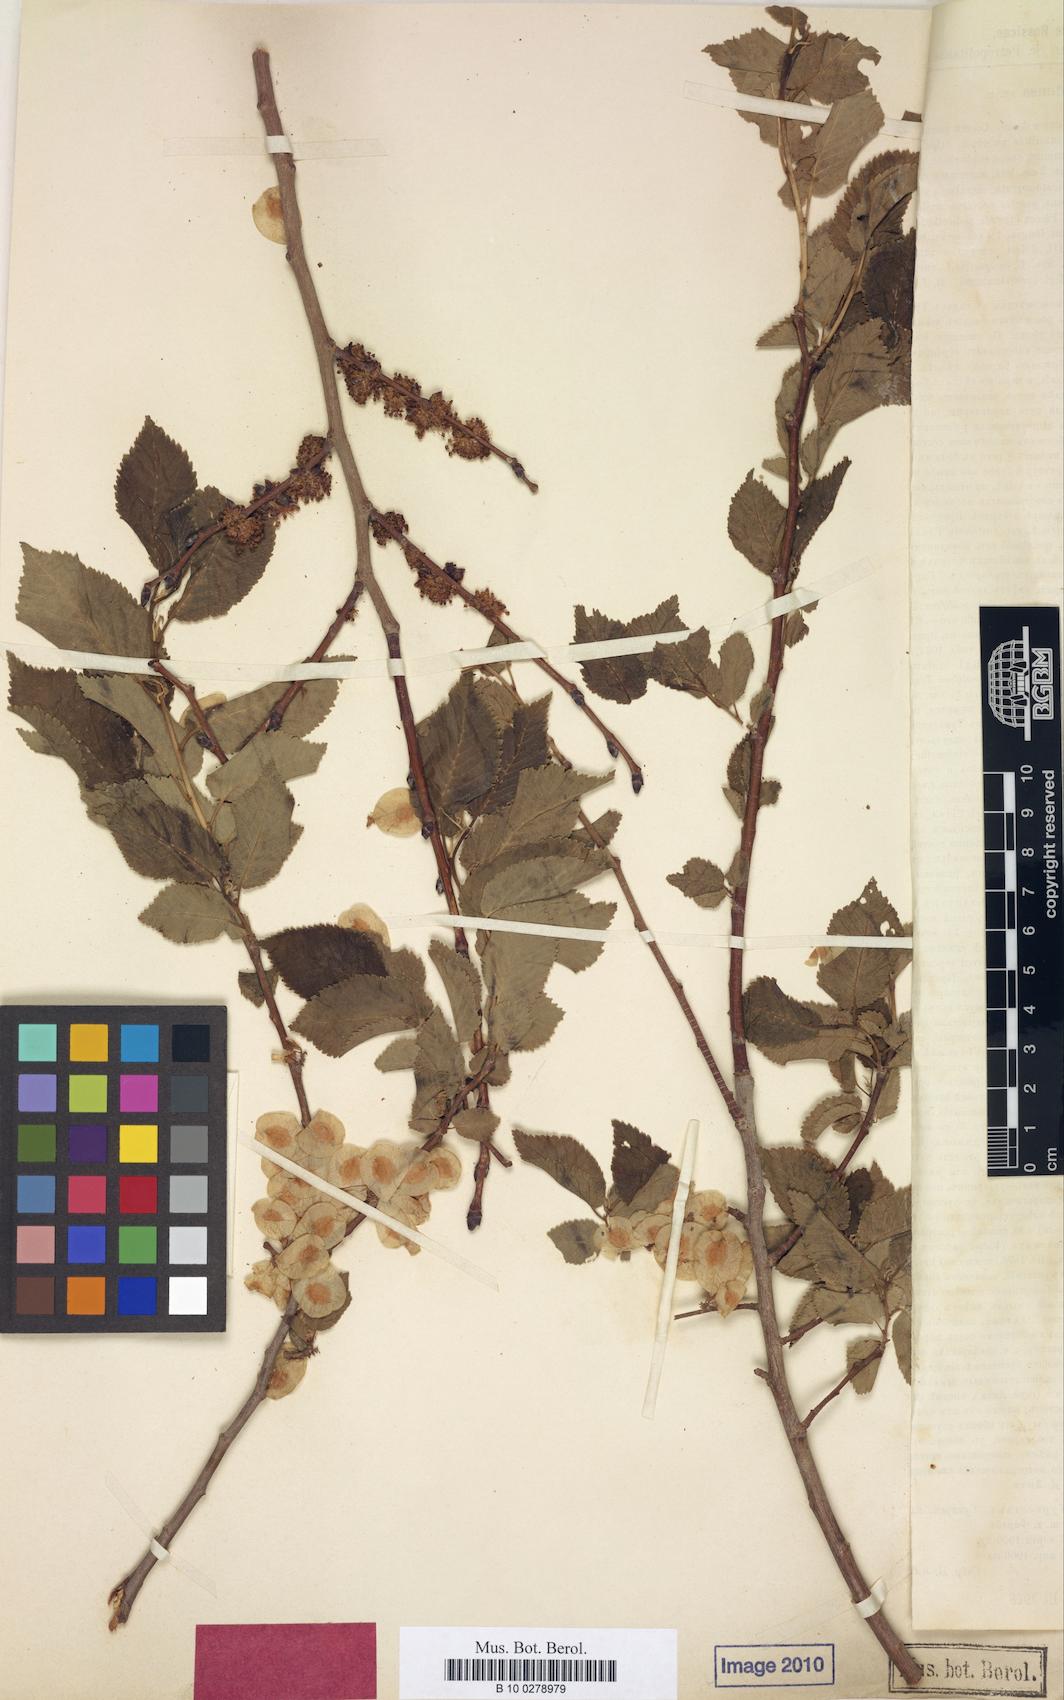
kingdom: Plantae
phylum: Tracheophyta
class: Magnoliopsida
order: Rosales
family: Ulmaceae
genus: Ulmus
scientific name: Ulmus minor
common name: Small-leaved elm
